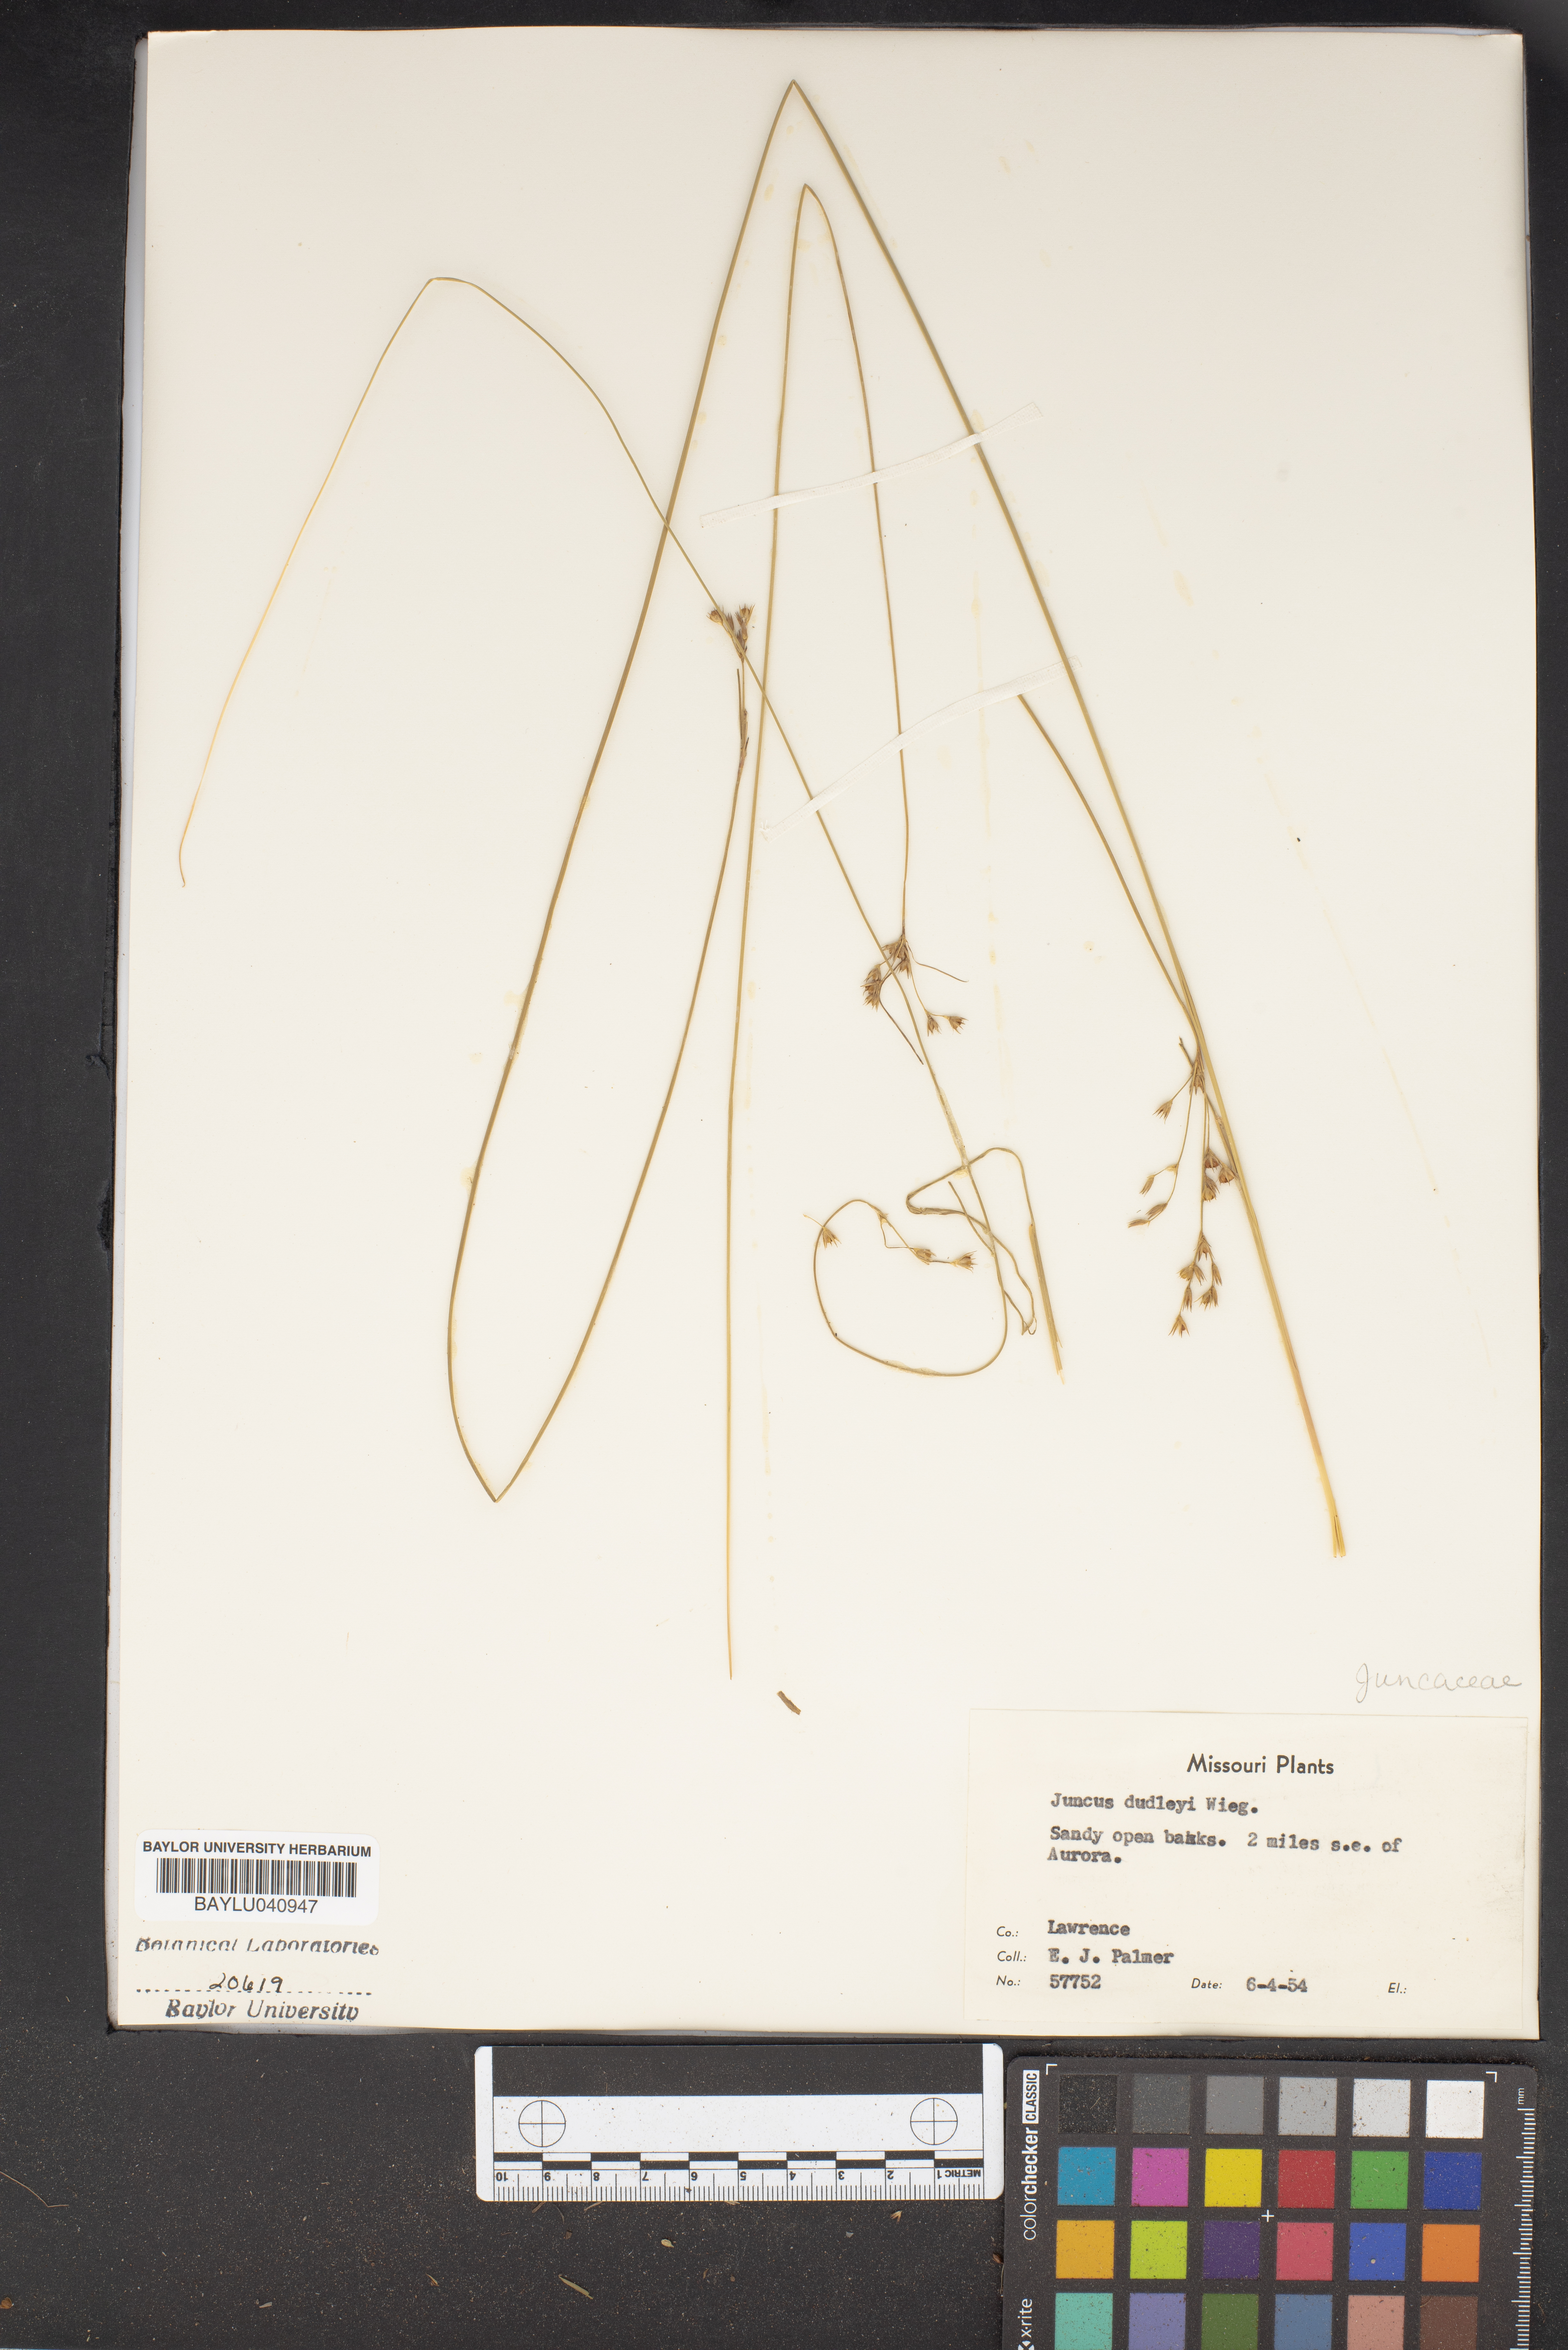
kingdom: Plantae
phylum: Tracheophyta
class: Liliopsida
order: Poales
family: Juncaceae
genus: Juncus
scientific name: Juncus dudleyi
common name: Dudley's rush
